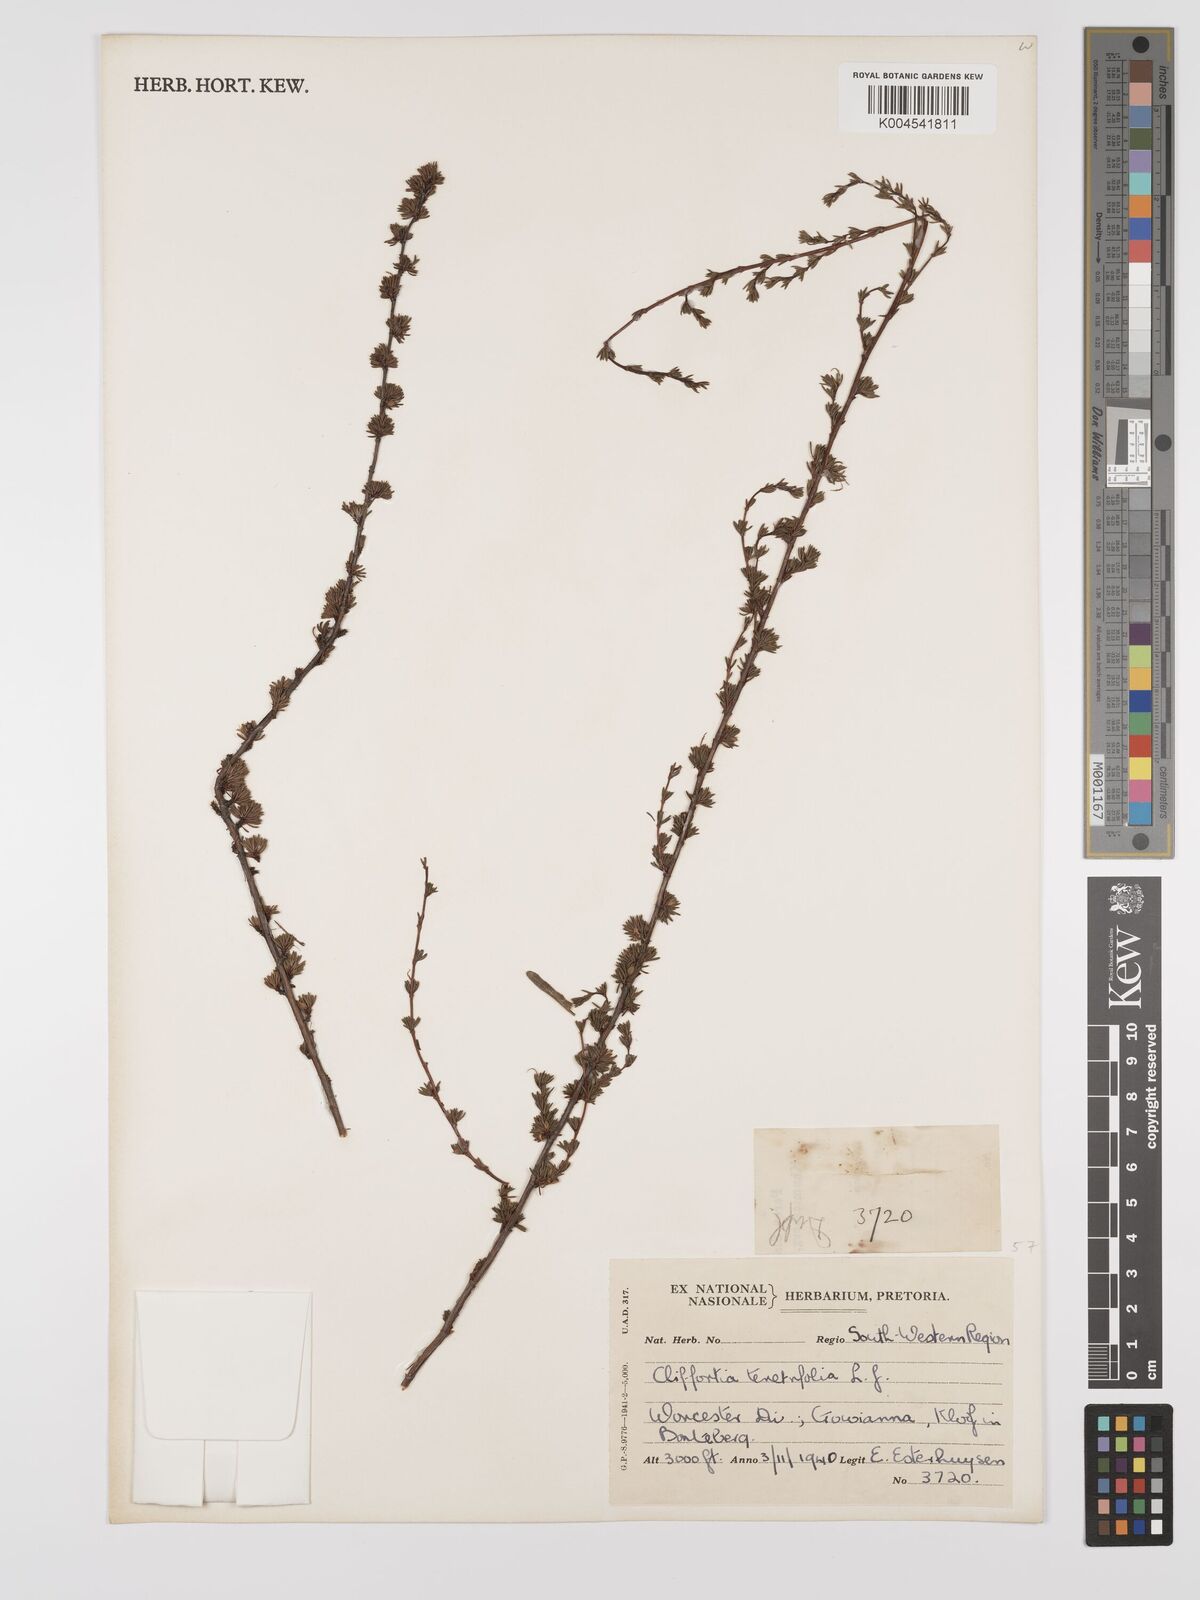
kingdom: Plantae
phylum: Tracheophyta
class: Magnoliopsida
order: Rosales
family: Rosaceae
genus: Cliffortia
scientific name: Cliffortia teretifolia
